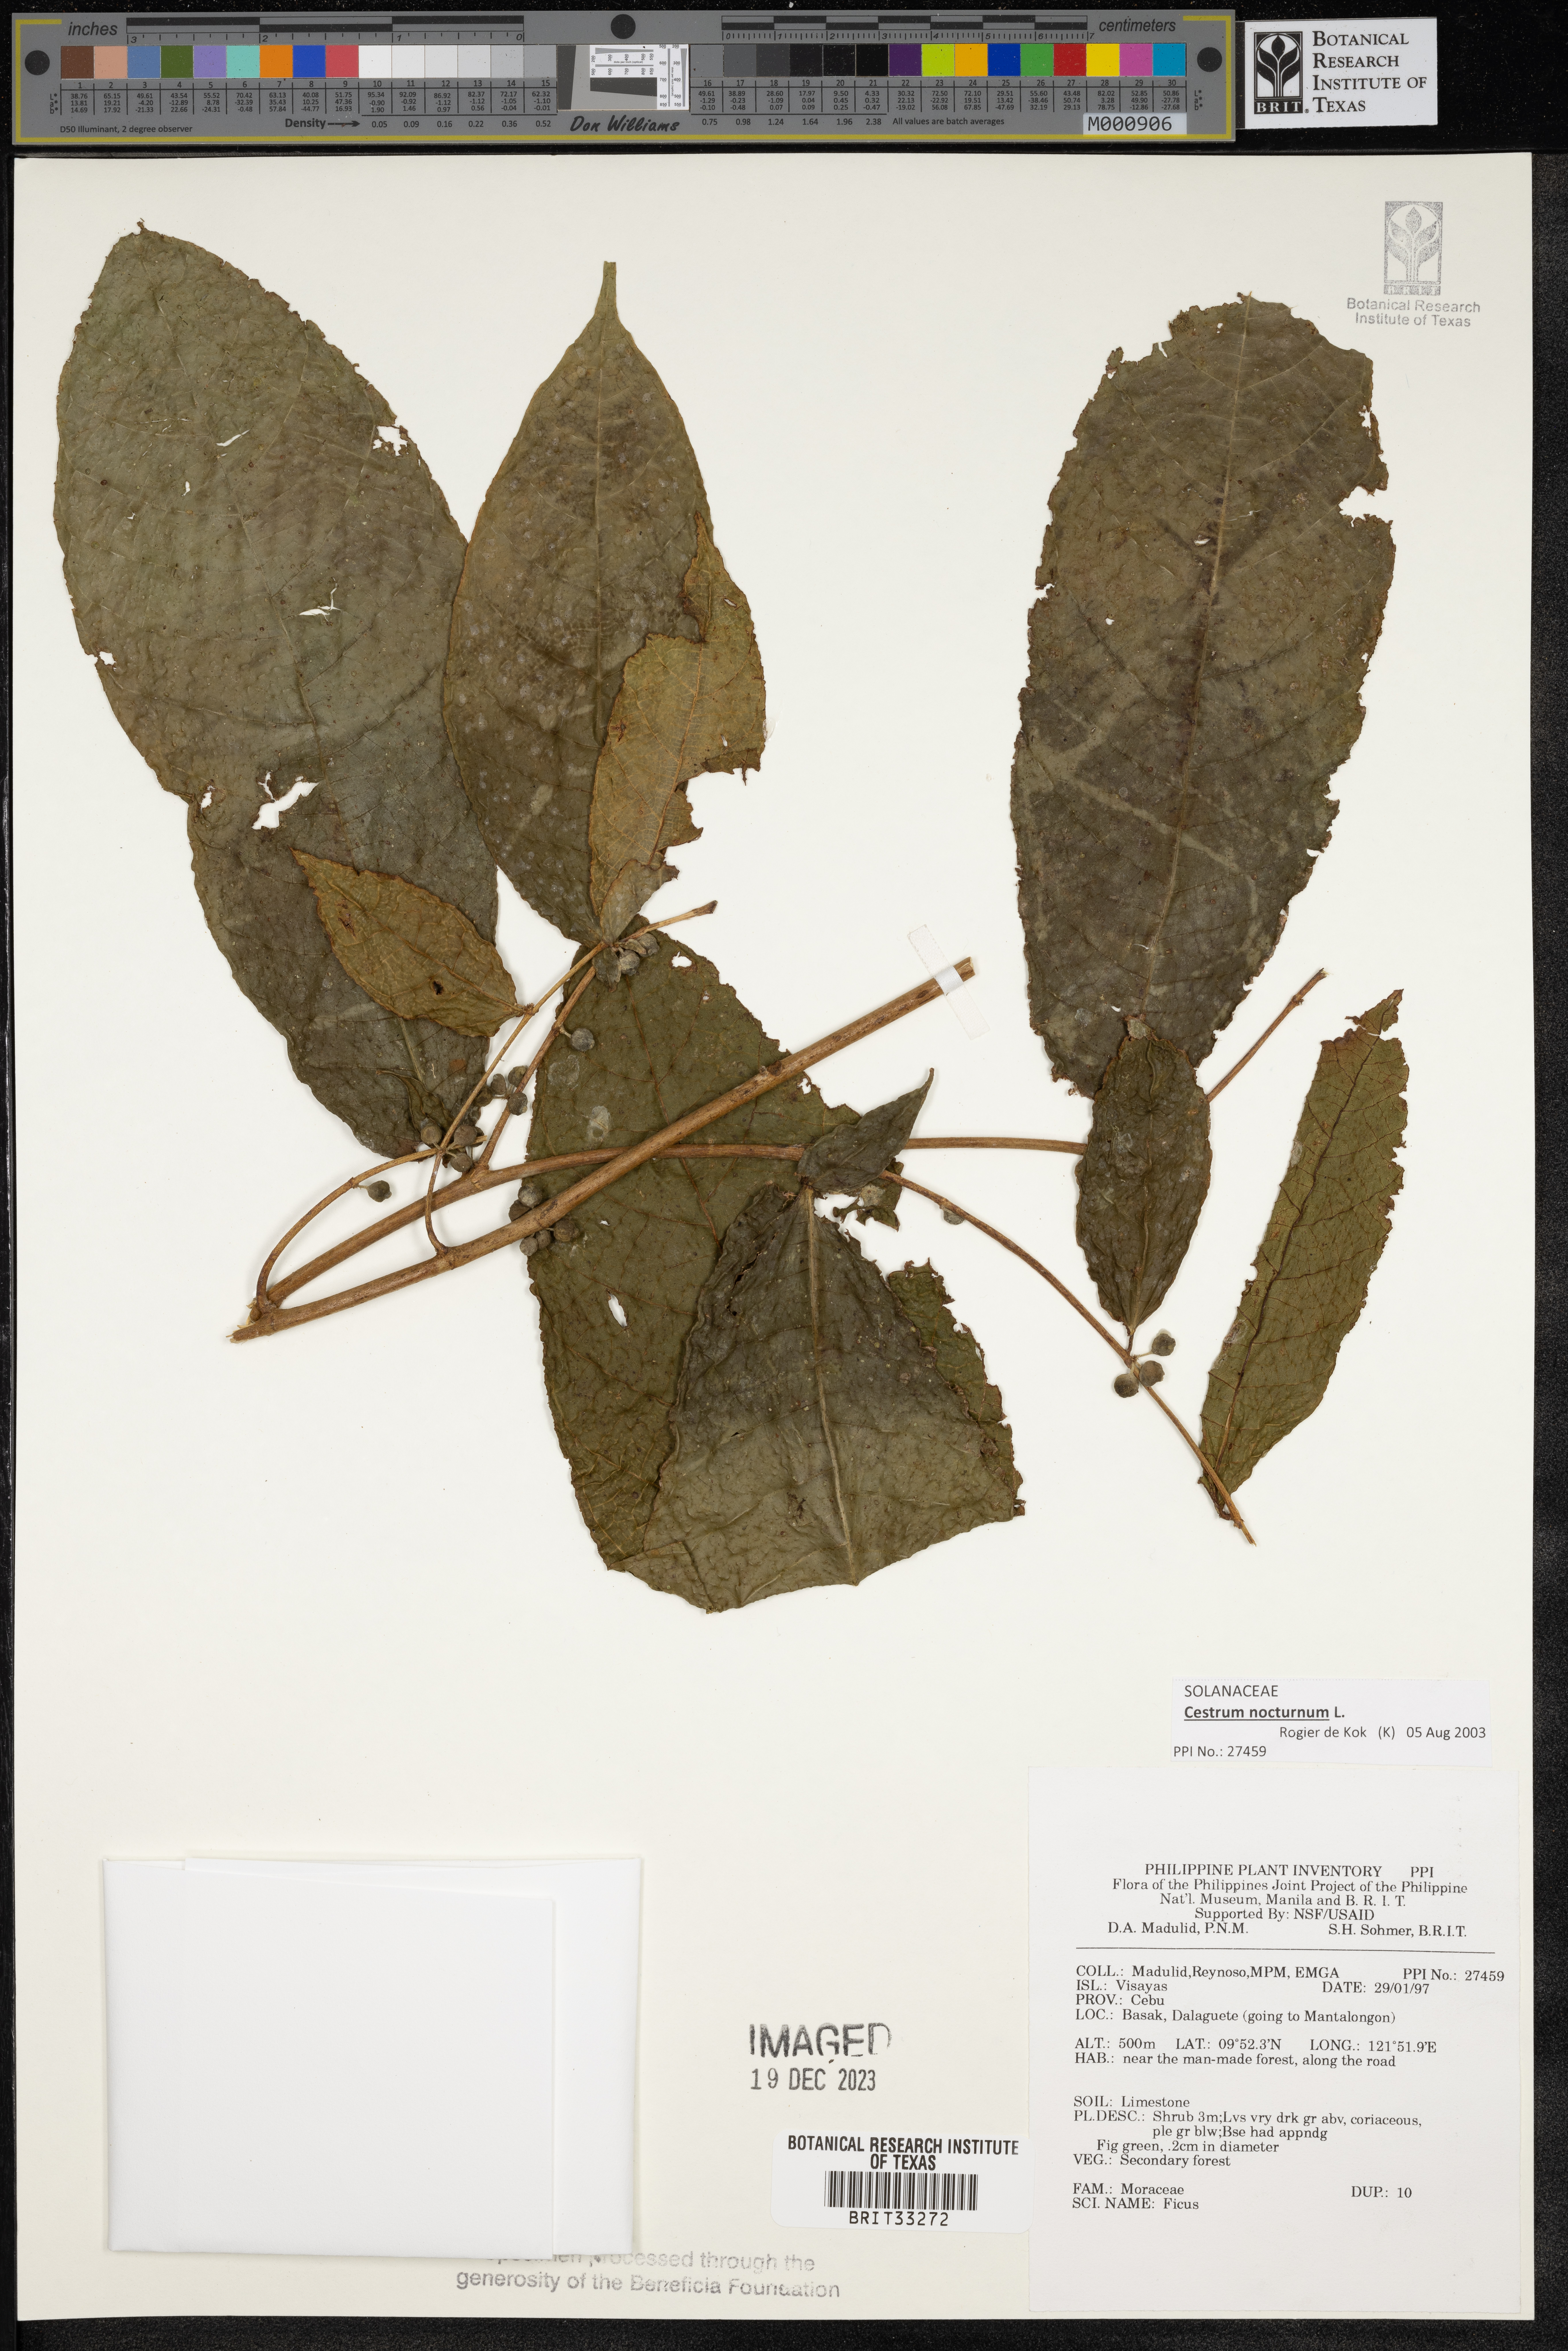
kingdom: Plantae
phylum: Tracheophyta
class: Magnoliopsida
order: Rosales
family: Moraceae
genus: Ficus
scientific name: Ficus
